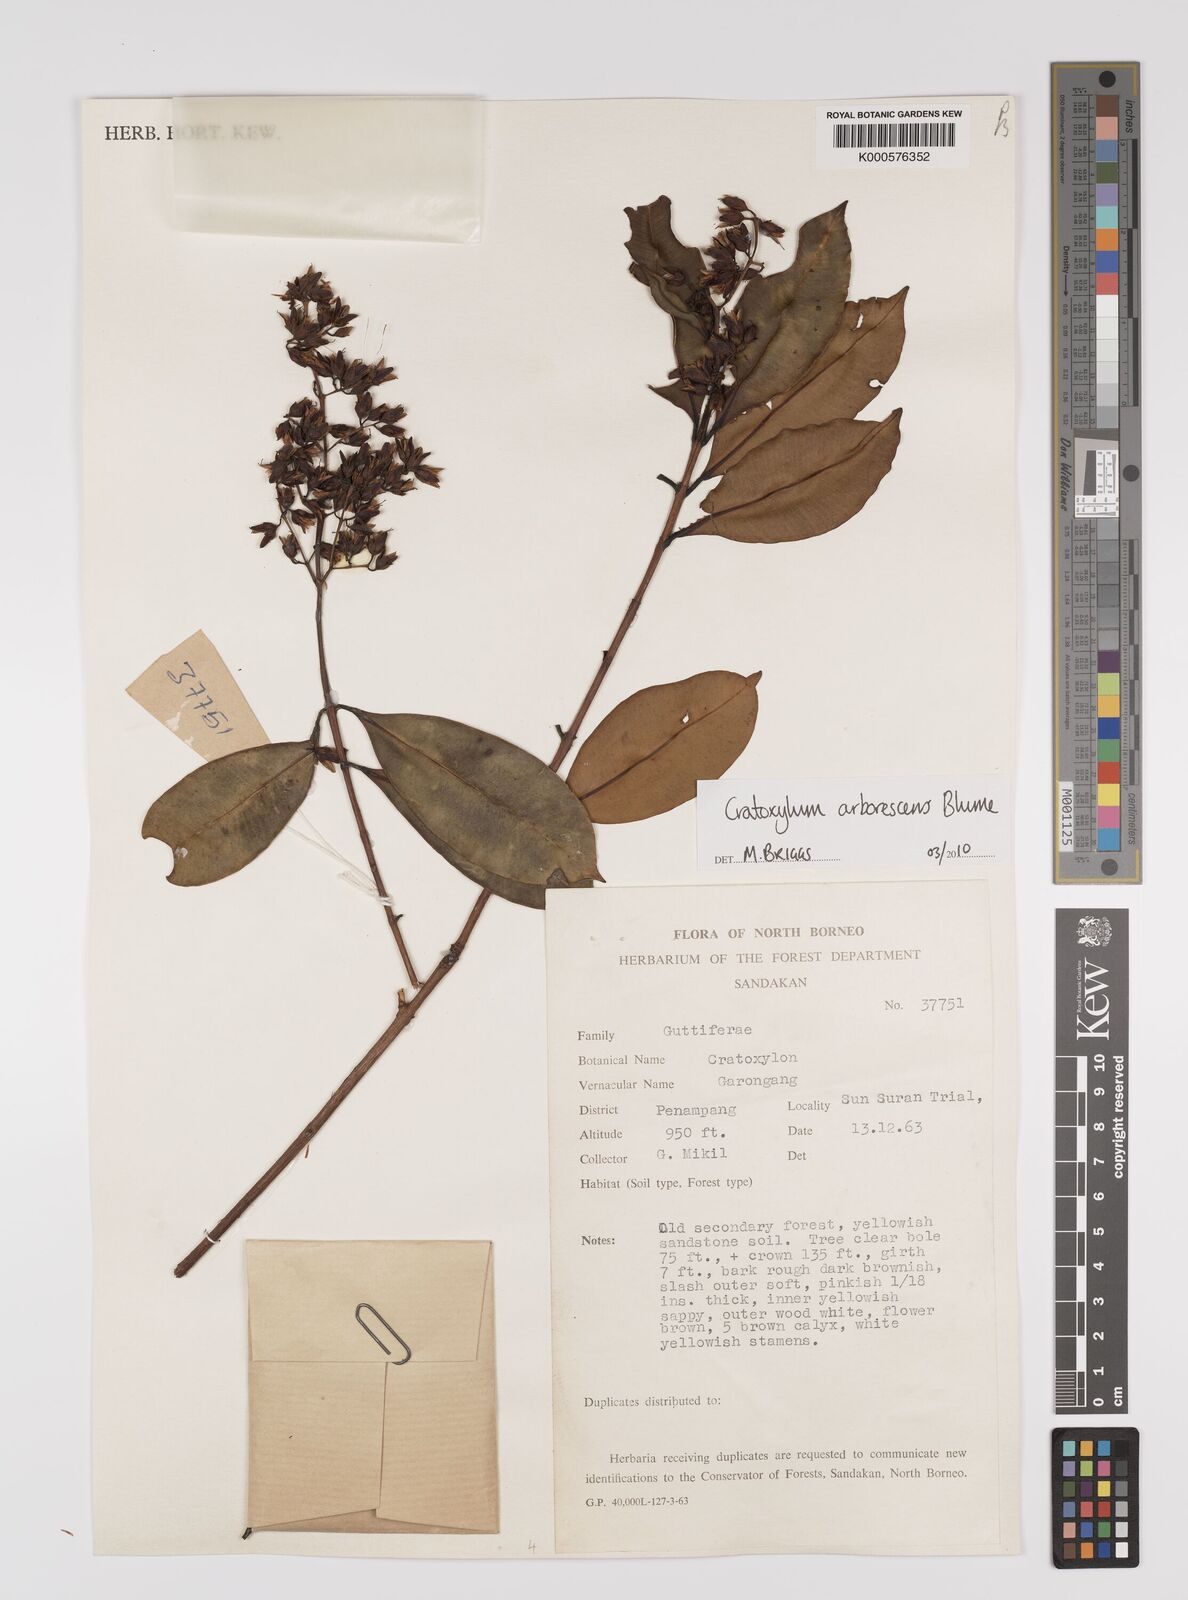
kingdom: Plantae
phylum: Tracheophyta
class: Magnoliopsida
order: Malpighiales
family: Hypericaceae
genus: Cratoxylum
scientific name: Cratoxylum arborescens
